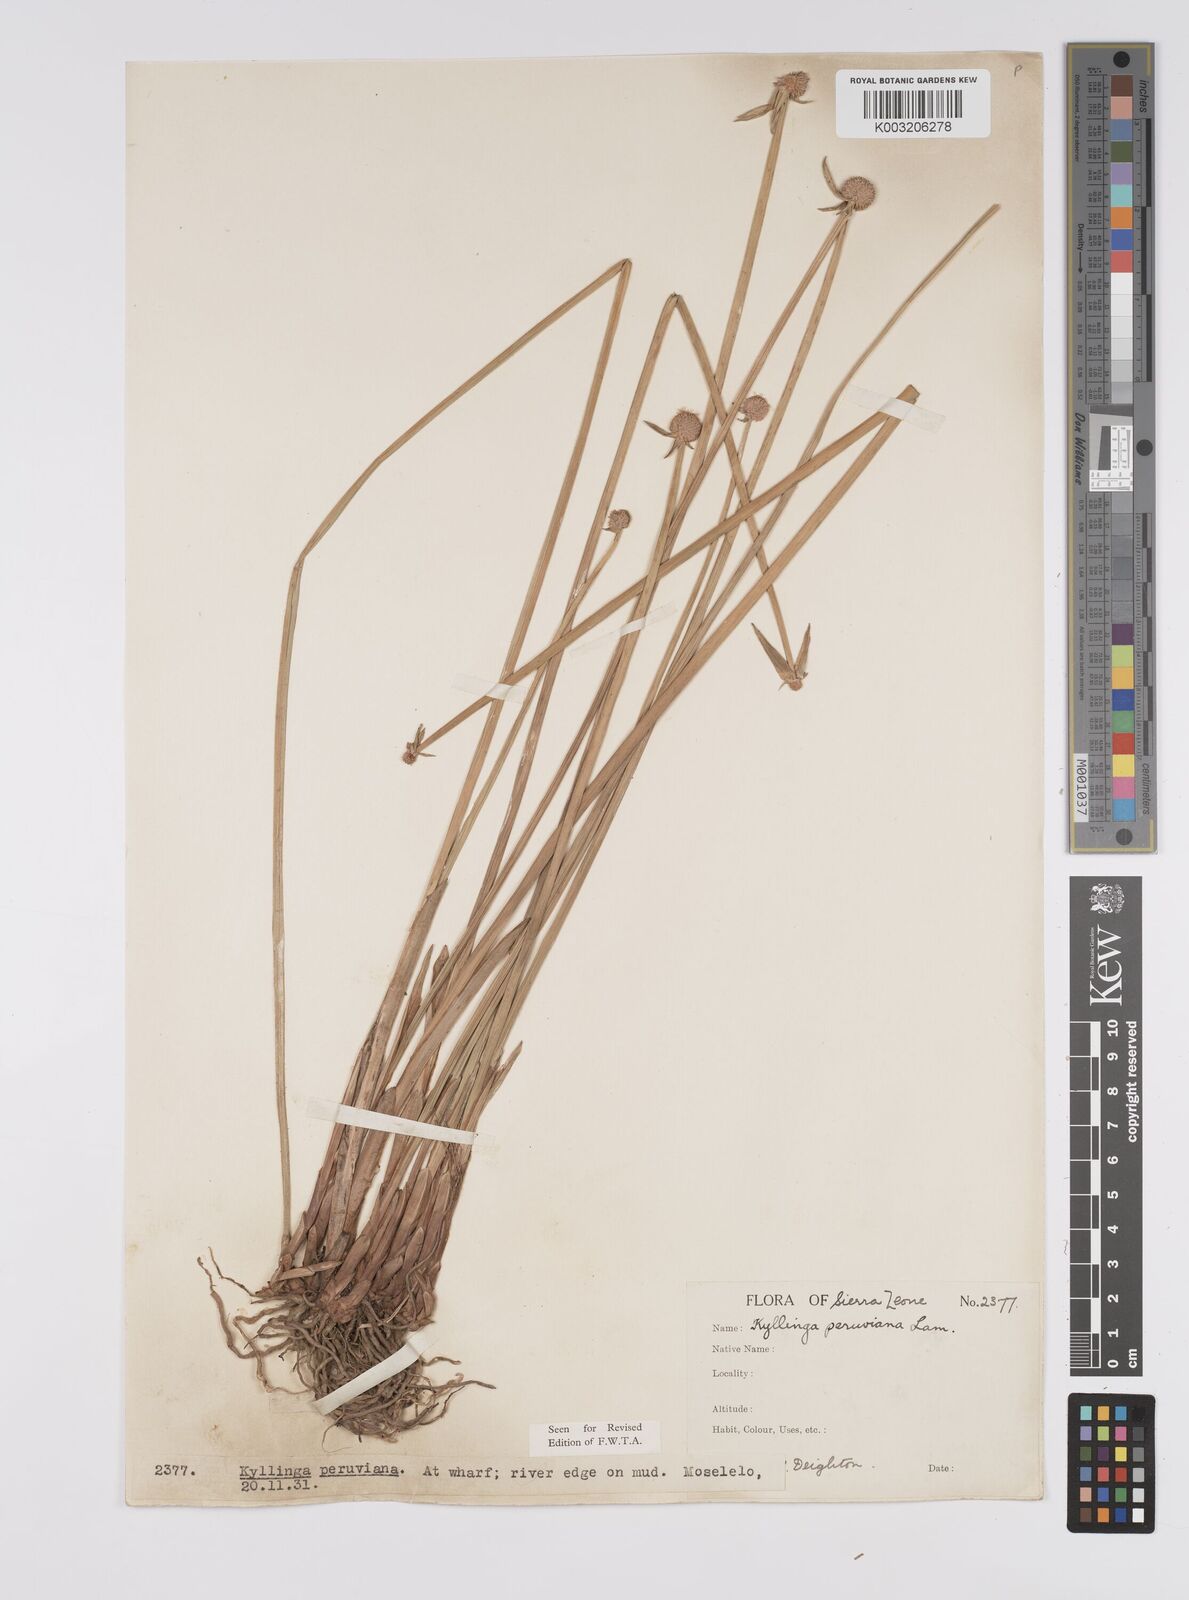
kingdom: Plantae
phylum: Tracheophyta
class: Liliopsida
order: Poales
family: Cyperaceae
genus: Cyperus
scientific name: Cyperus obtusatus
